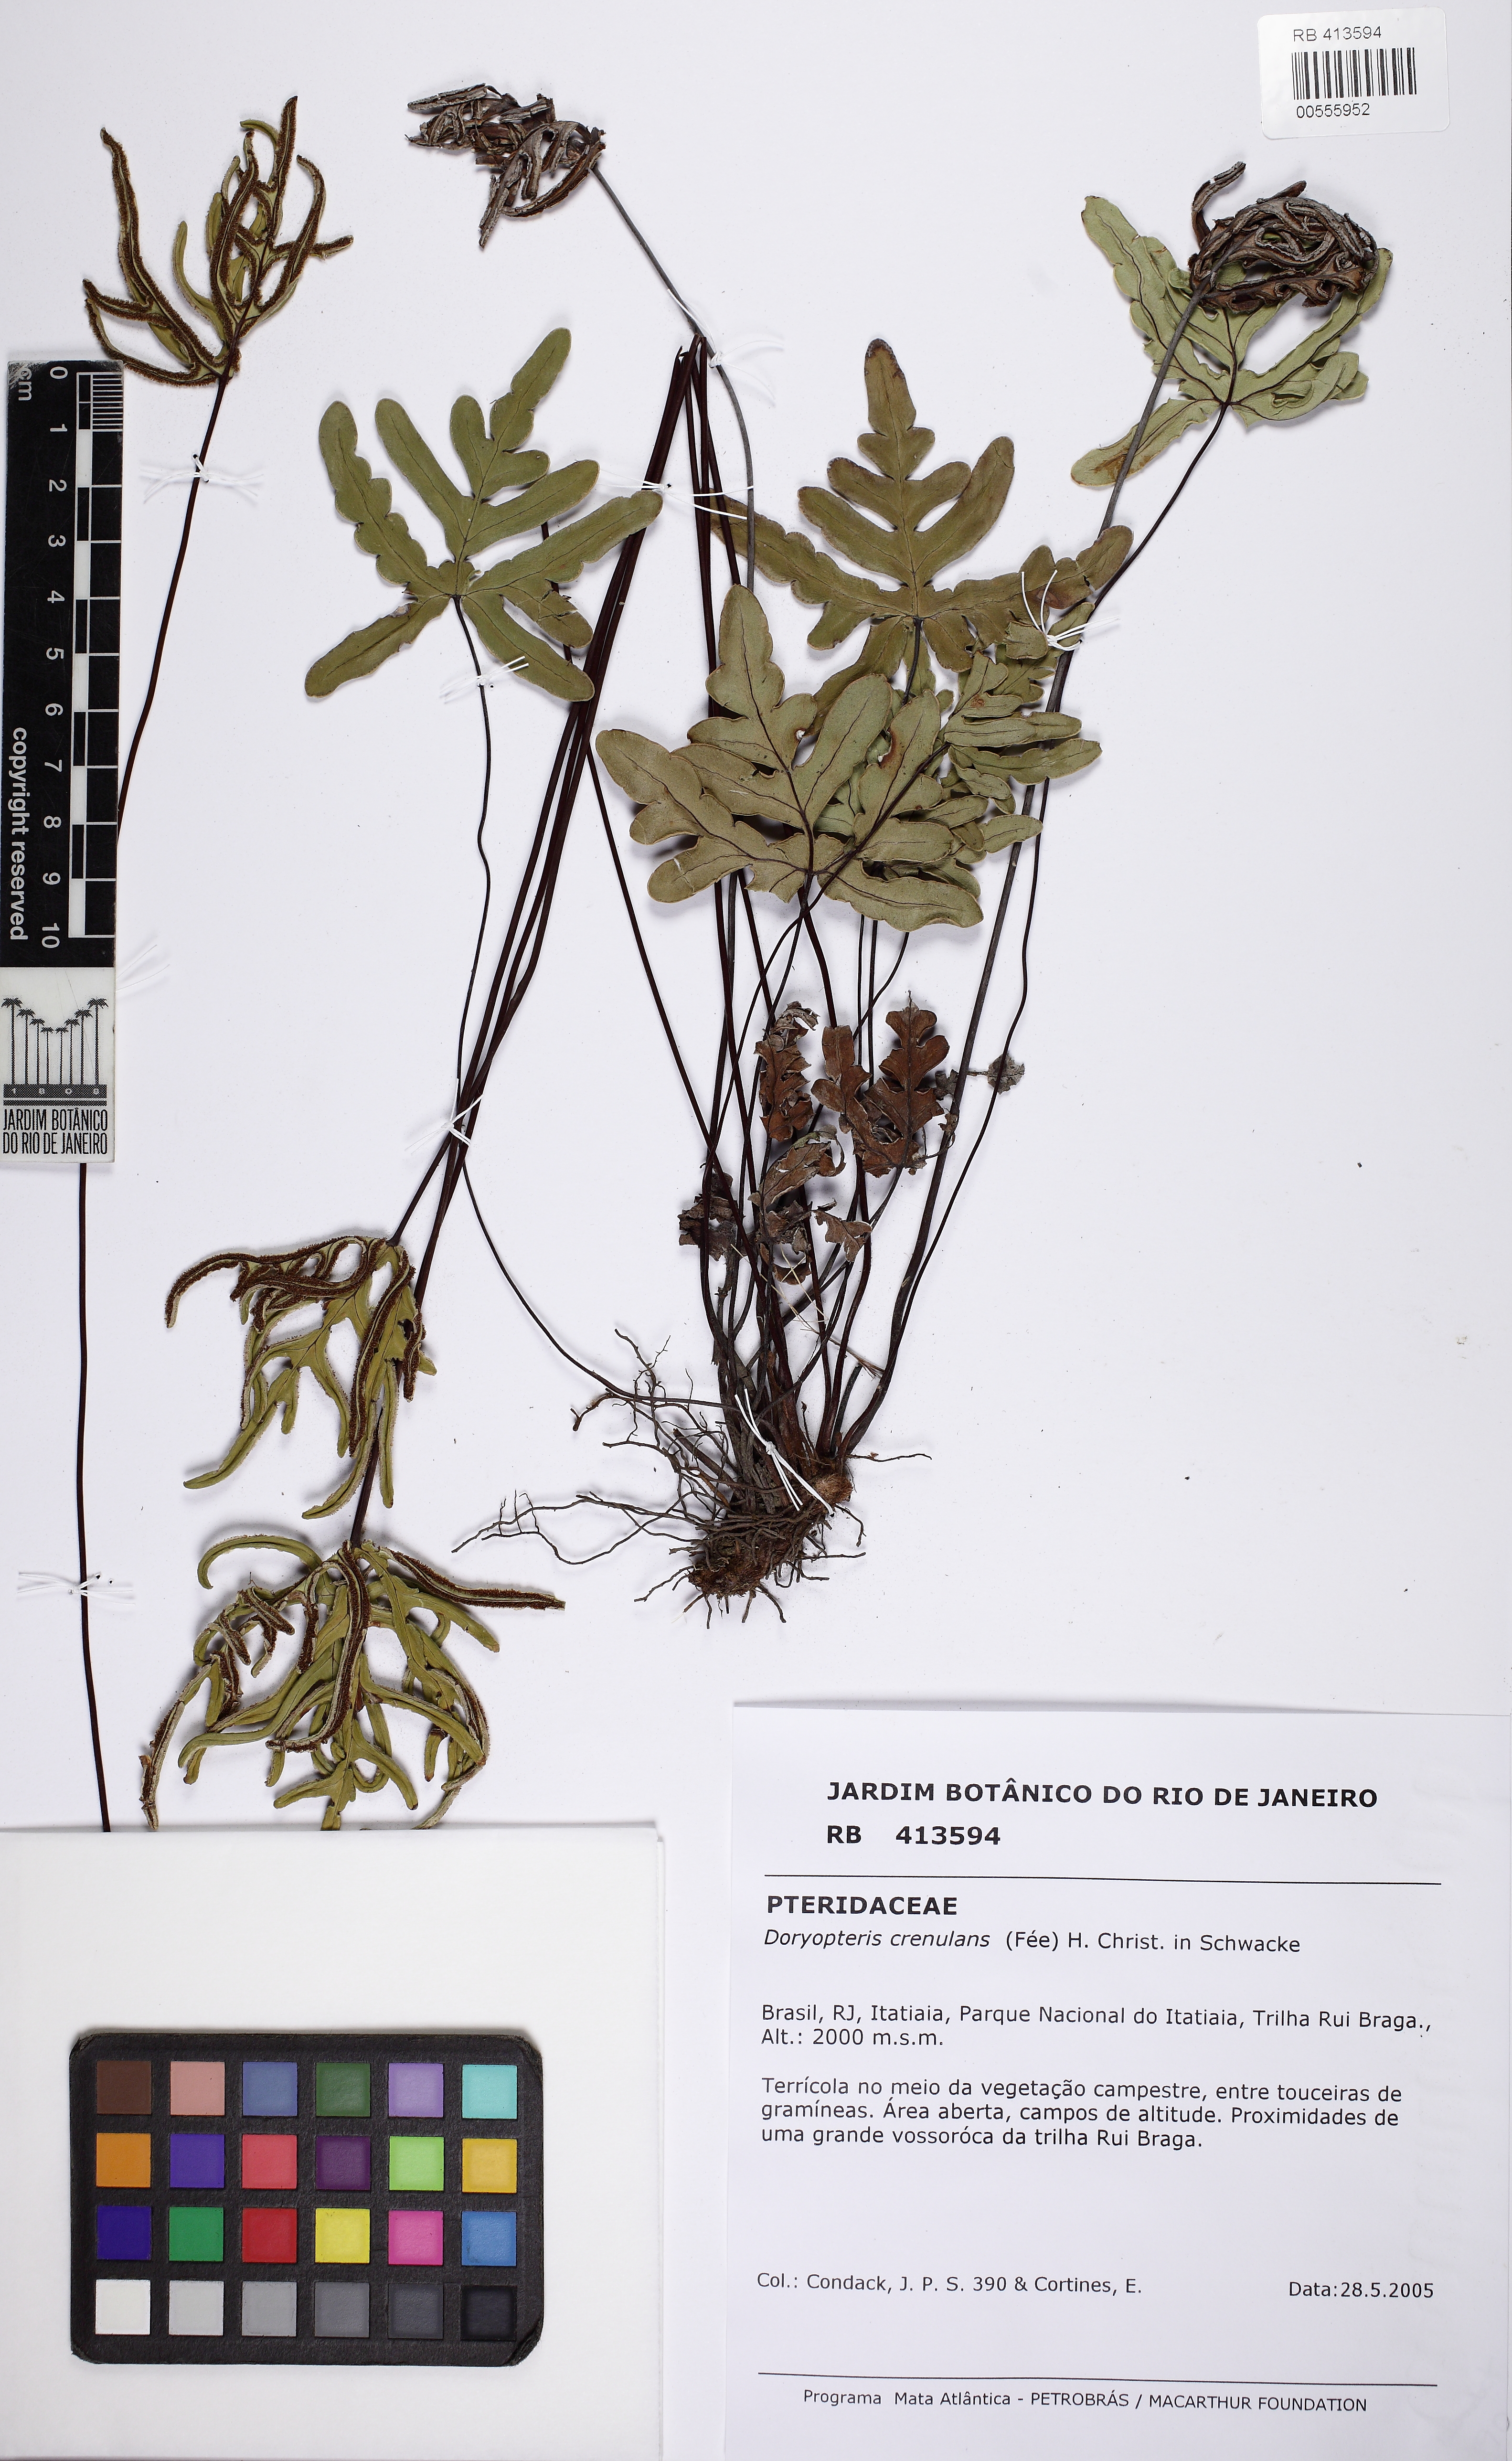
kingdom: Plantae
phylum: Tracheophyta
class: Polypodiopsida
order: Polypodiales
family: Pteridaceae
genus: Lytoneuron
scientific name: Lytoneuron crenulans
